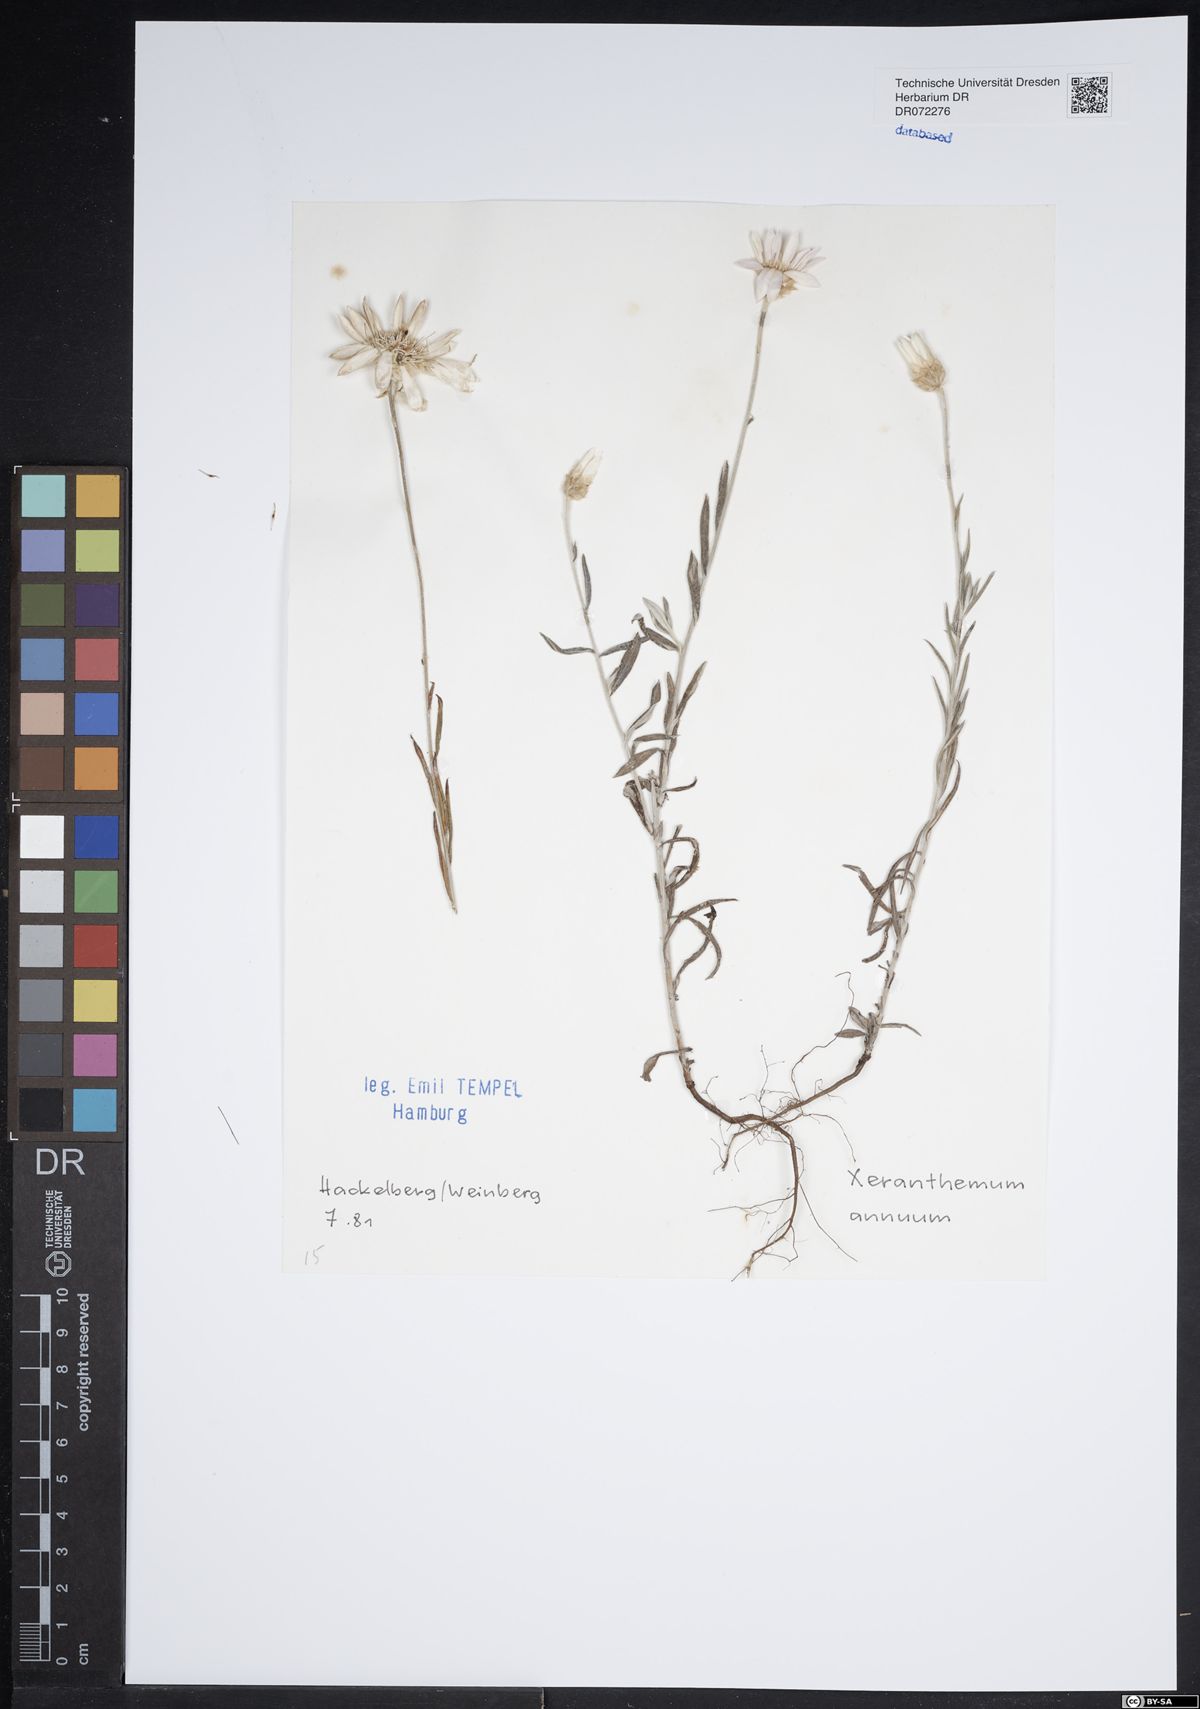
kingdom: Plantae
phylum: Tracheophyta
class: Magnoliopsida
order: Asterales
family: Asteraceae
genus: Xeranthemum
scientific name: Xeranthemum annuum
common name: Immortelle
